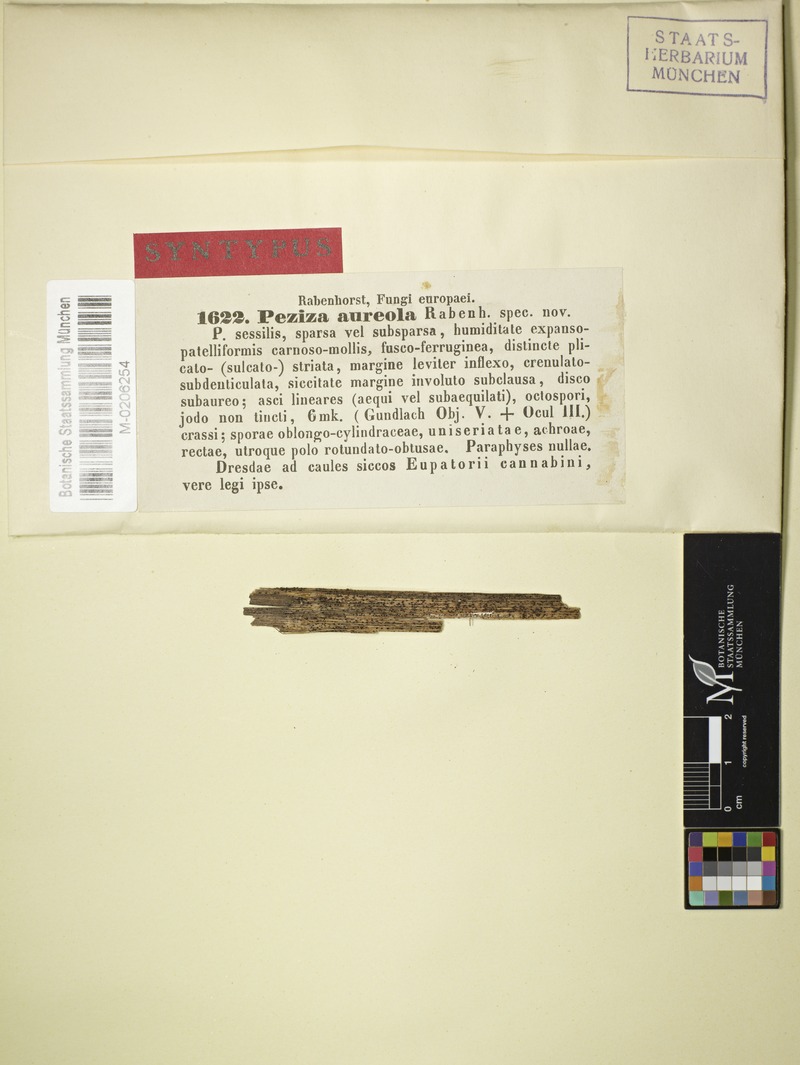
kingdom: Fungi
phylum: Ascomycota
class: Leotiomycetes
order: Helotiales
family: Ploettnerulaceae
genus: Pyrenopeziza
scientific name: Pyrenopeziza aureola
